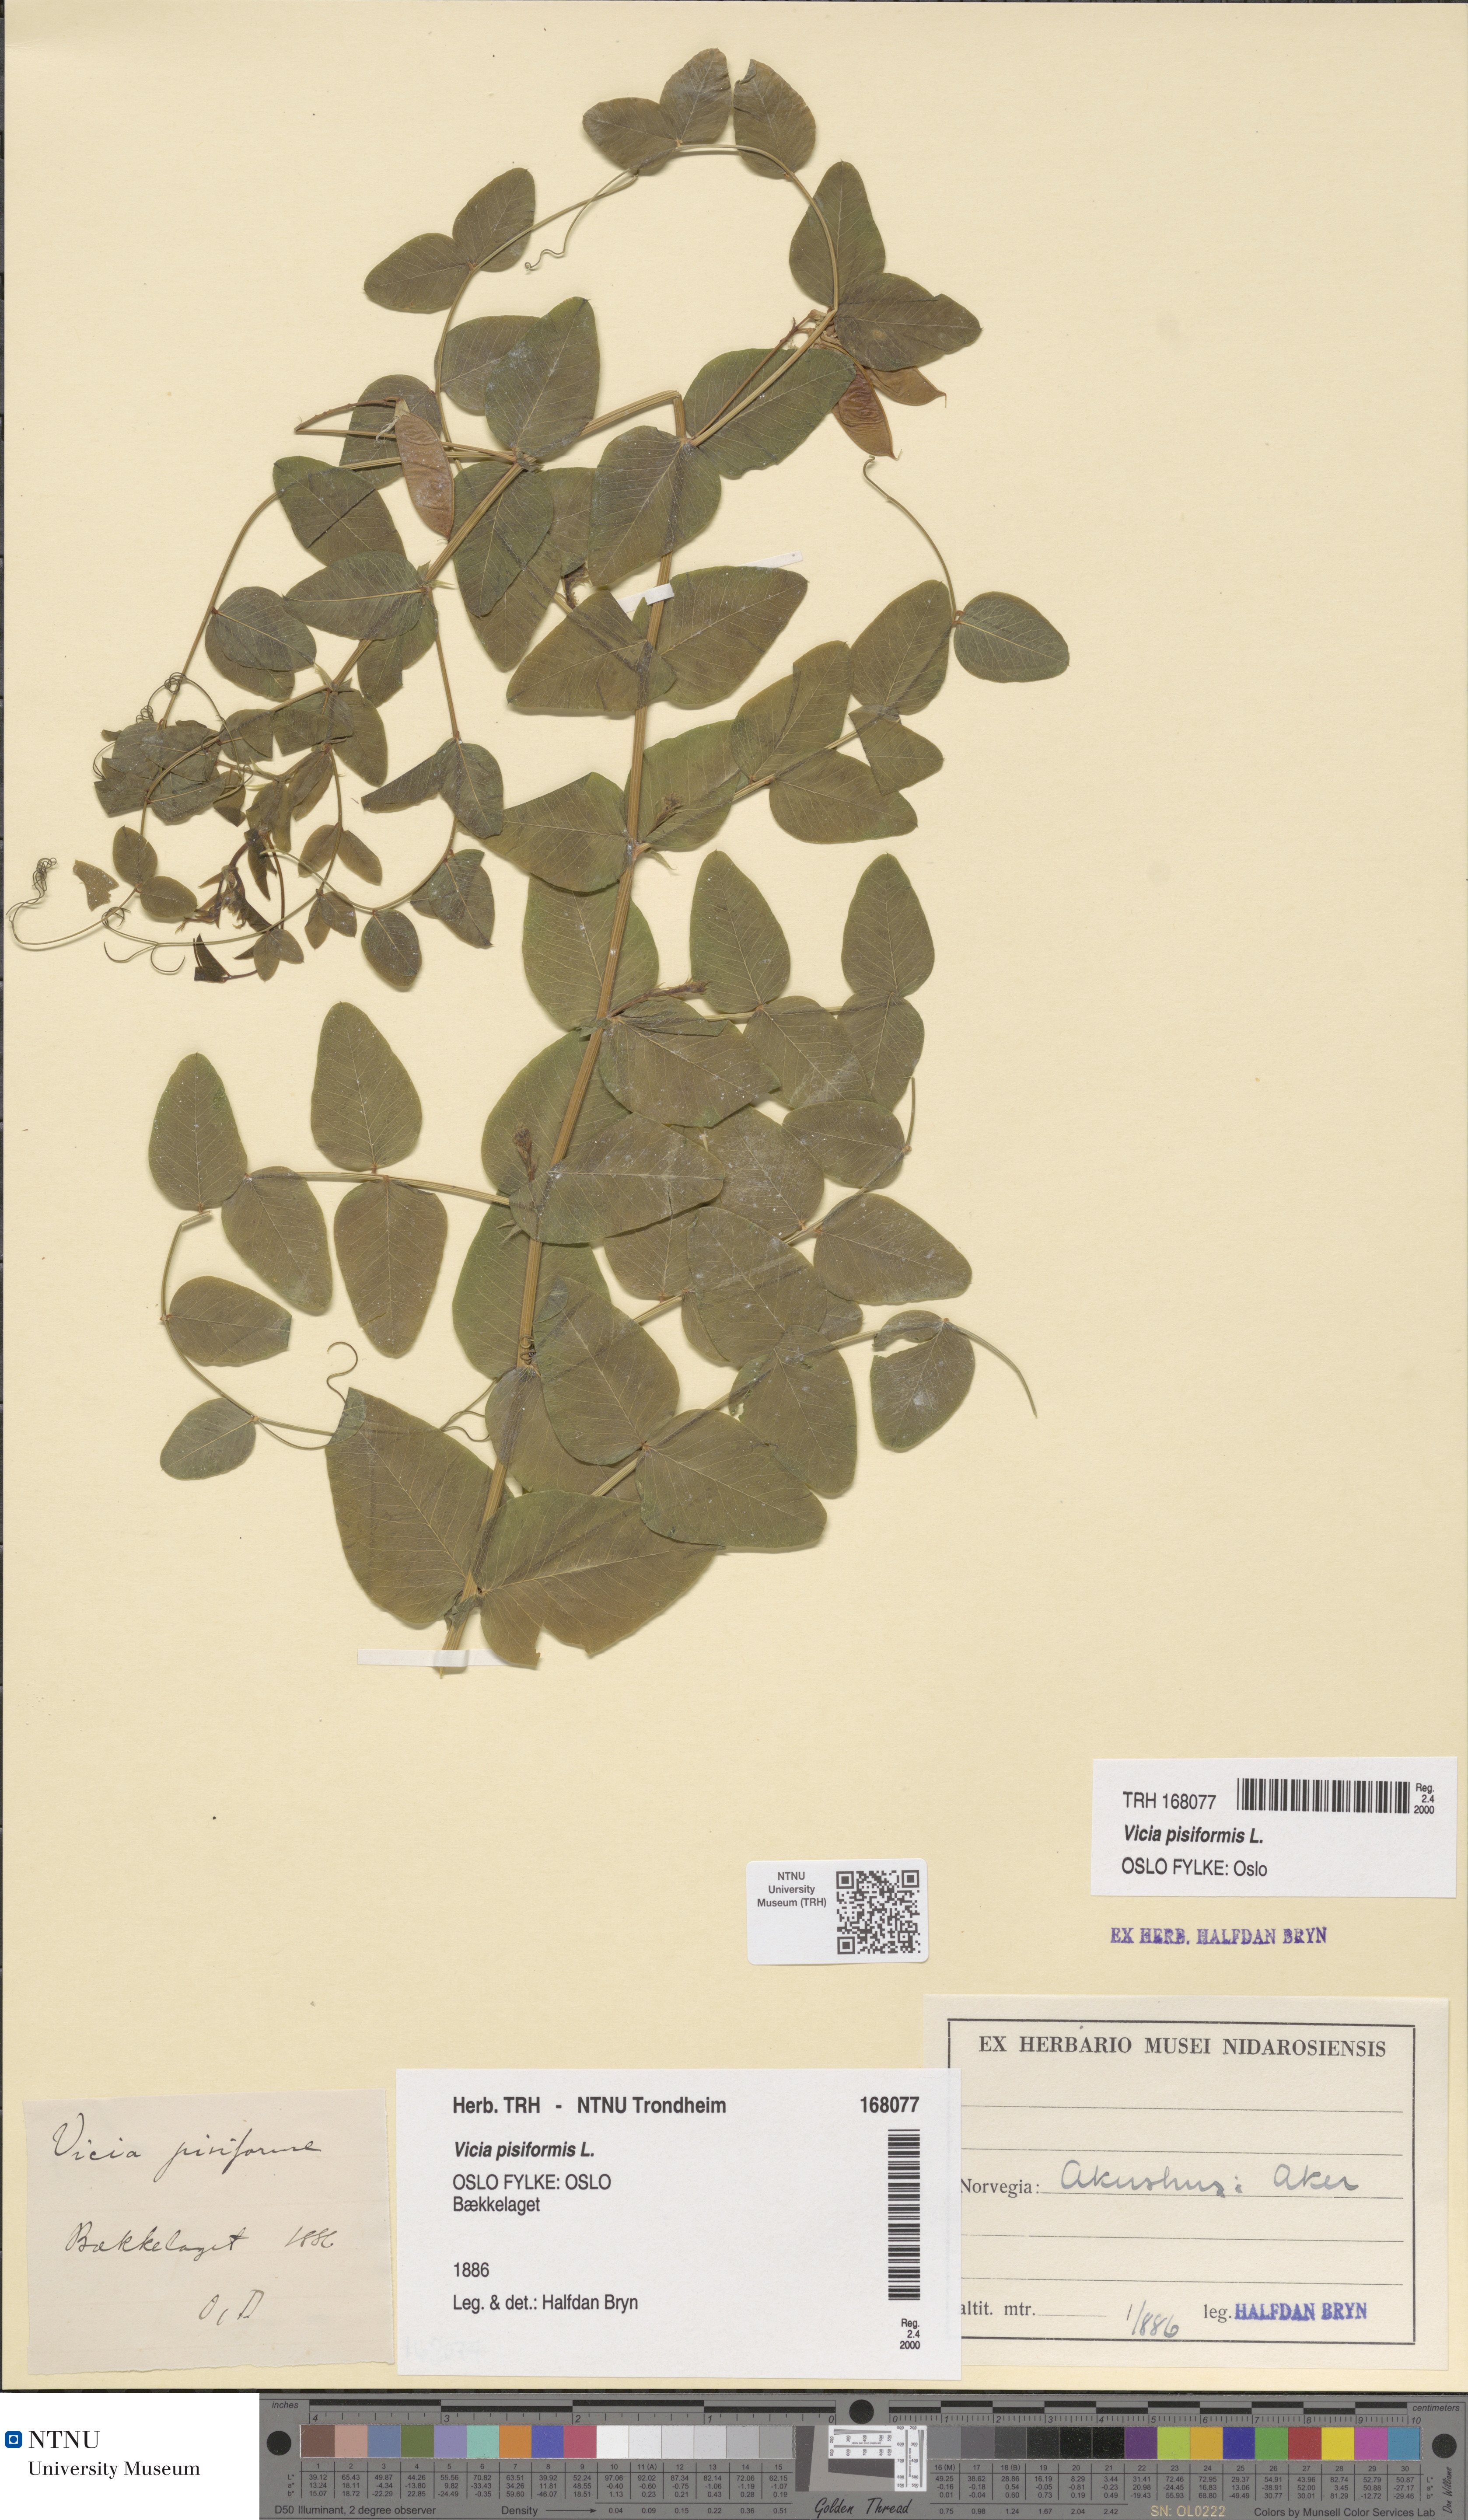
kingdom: Plantae
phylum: Tracheophyta
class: Magnoliopsida
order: Fabales
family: Fabaceae
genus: Vicia
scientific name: Vicia pisiformis
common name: Pale-flower vetch
